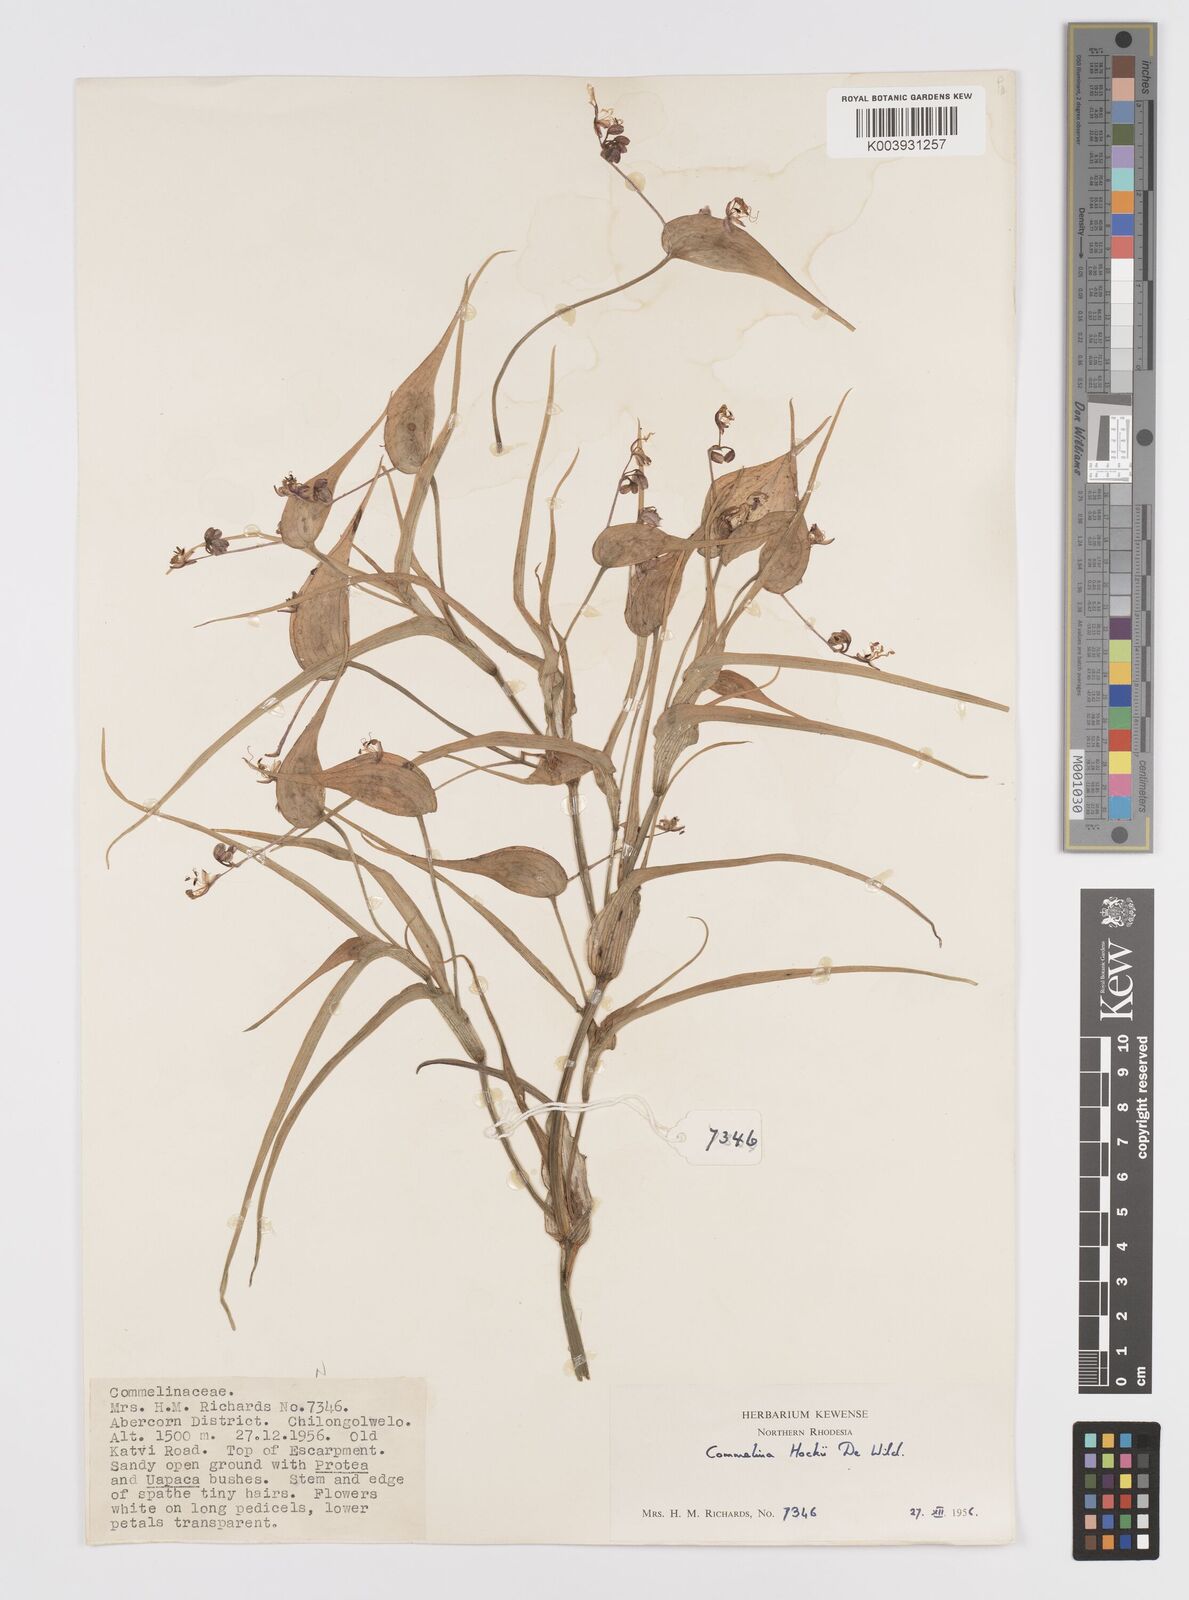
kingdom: Plantae
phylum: Tracheophyta
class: Liliopsida
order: Commelinales
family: Commelinaceae
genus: Commelina
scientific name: Commelina hockii
